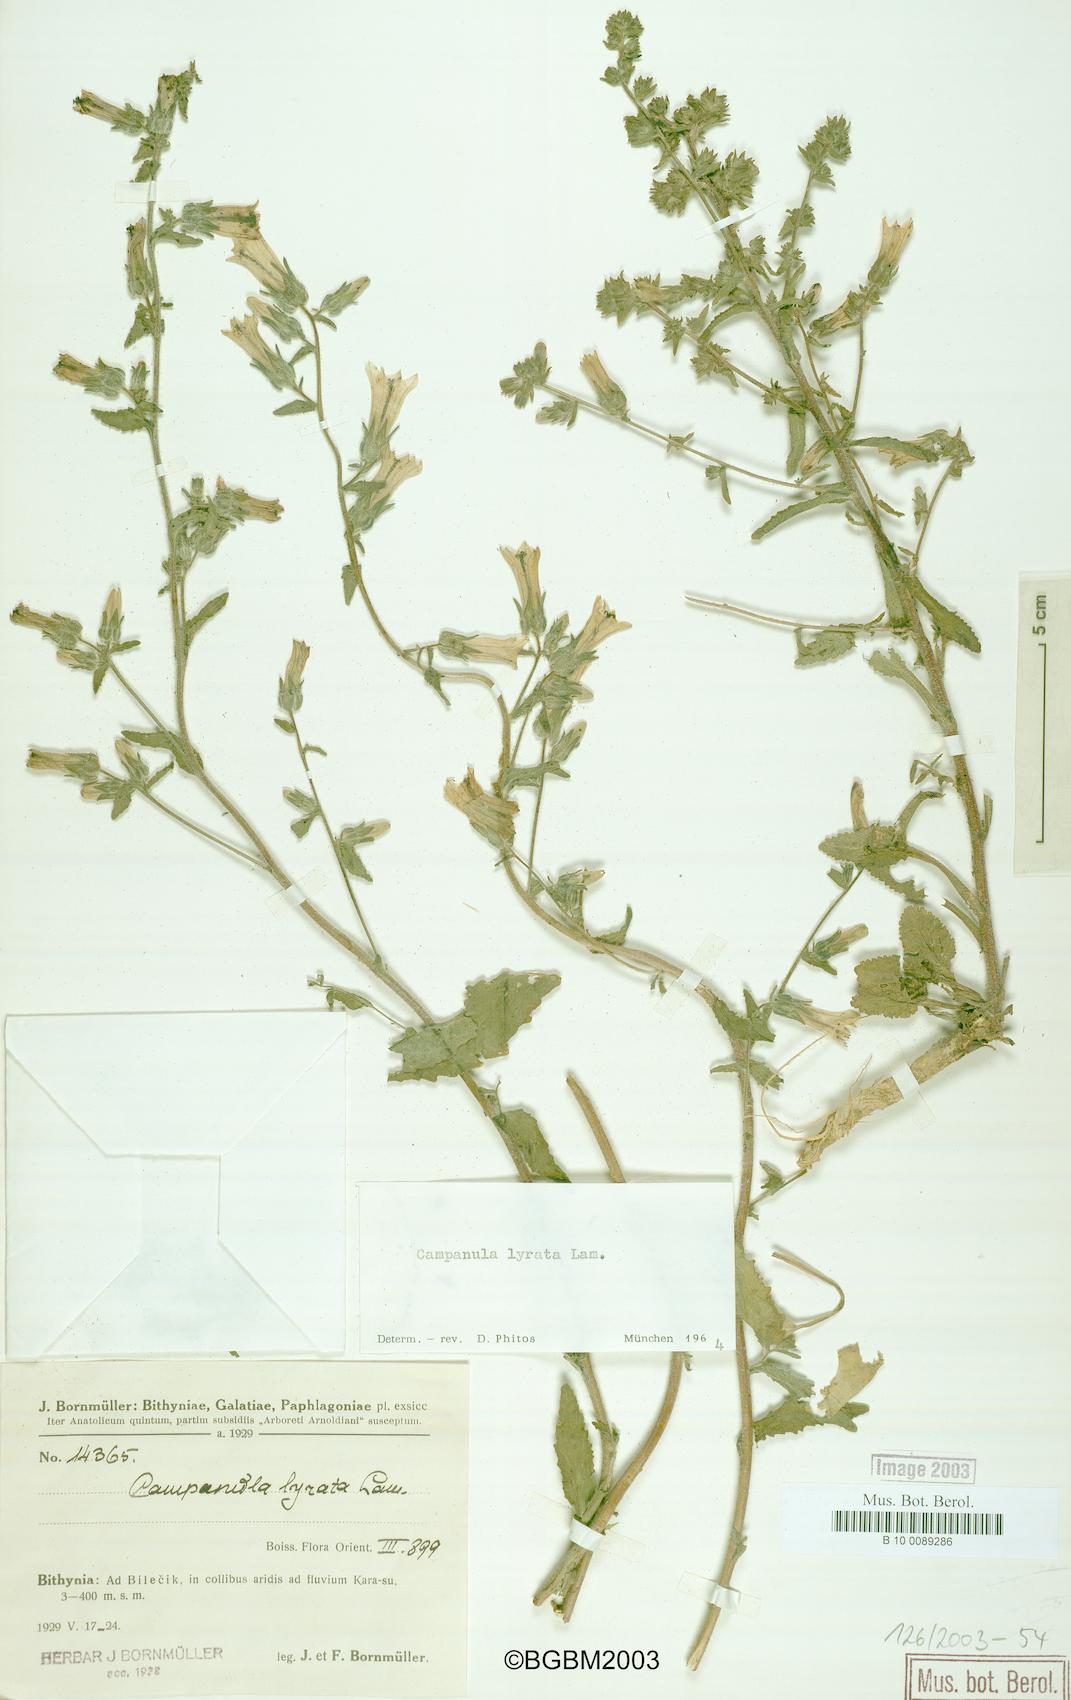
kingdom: Plantae
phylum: Tracheophyta
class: Magnoliopsida
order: Asterales
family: Campanulaceae
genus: Campanula
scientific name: Campanula lyrata
